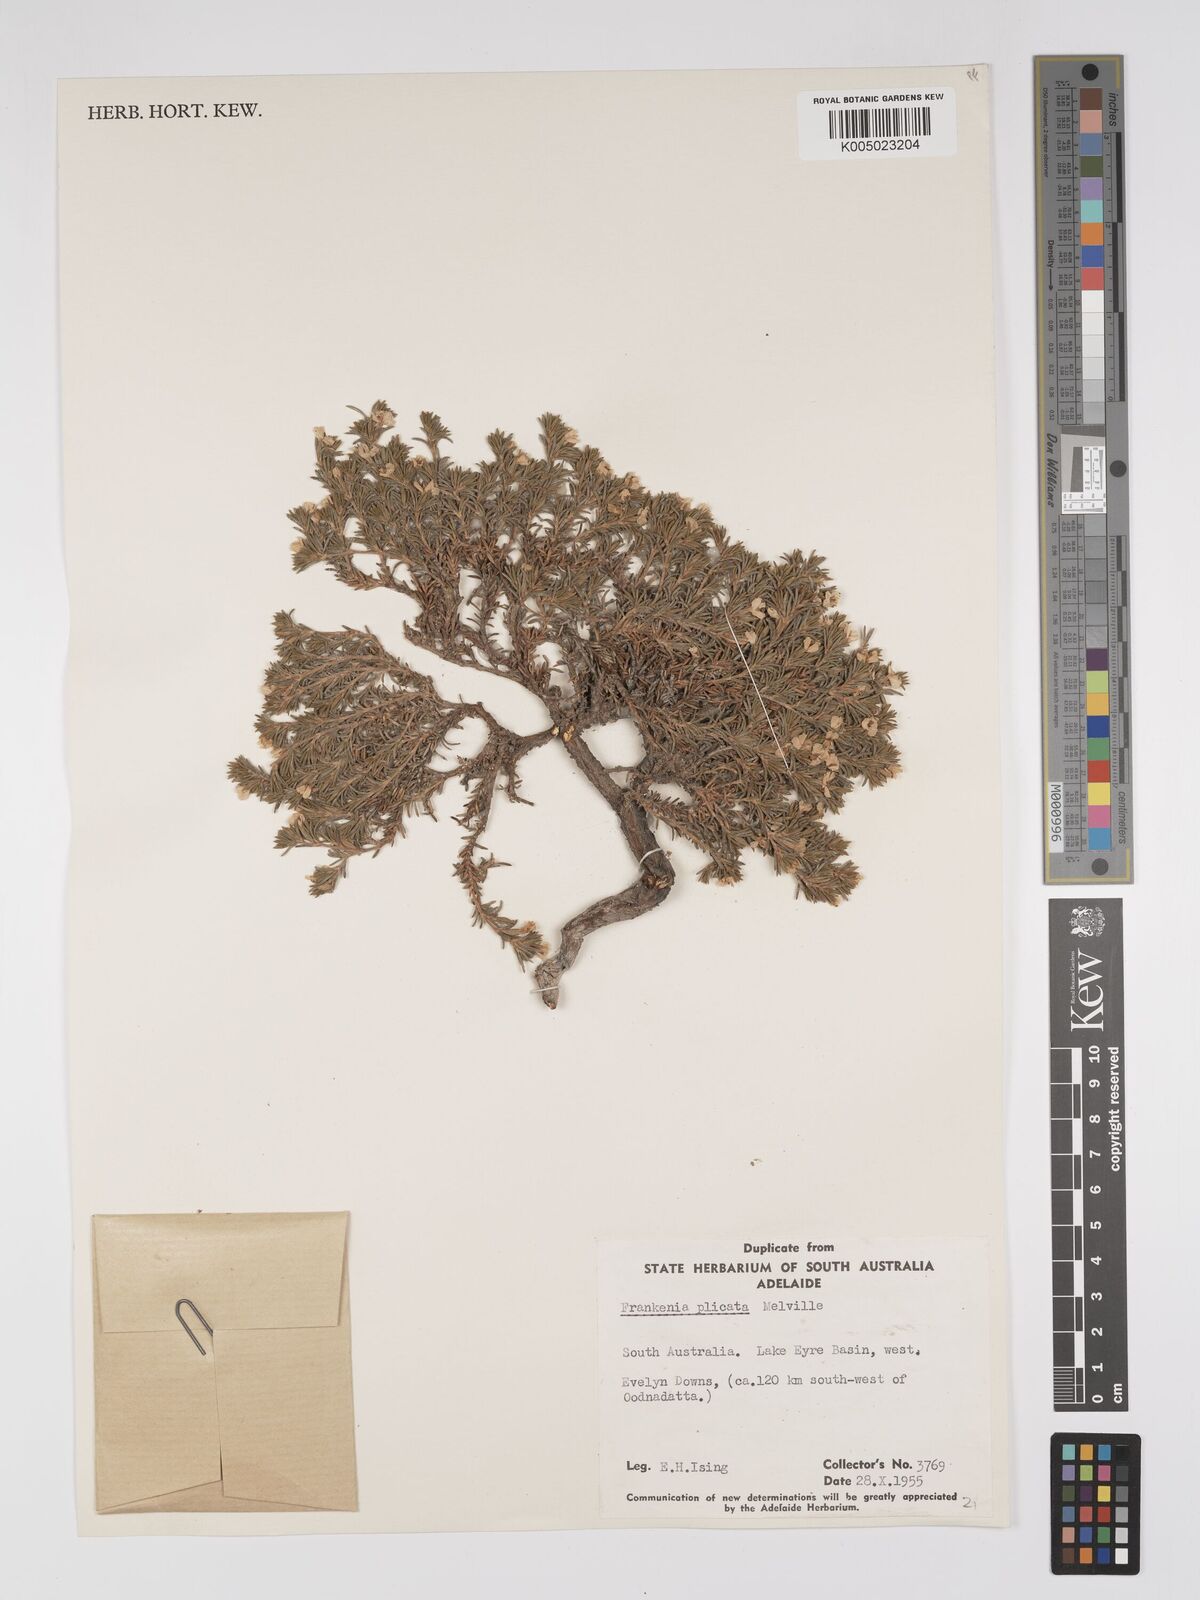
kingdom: Plantae
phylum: Tracheophyta
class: Magnoliopsida
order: Caryophyllales
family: Frankeniaceae
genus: Frankenia
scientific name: Frankenia plicata
